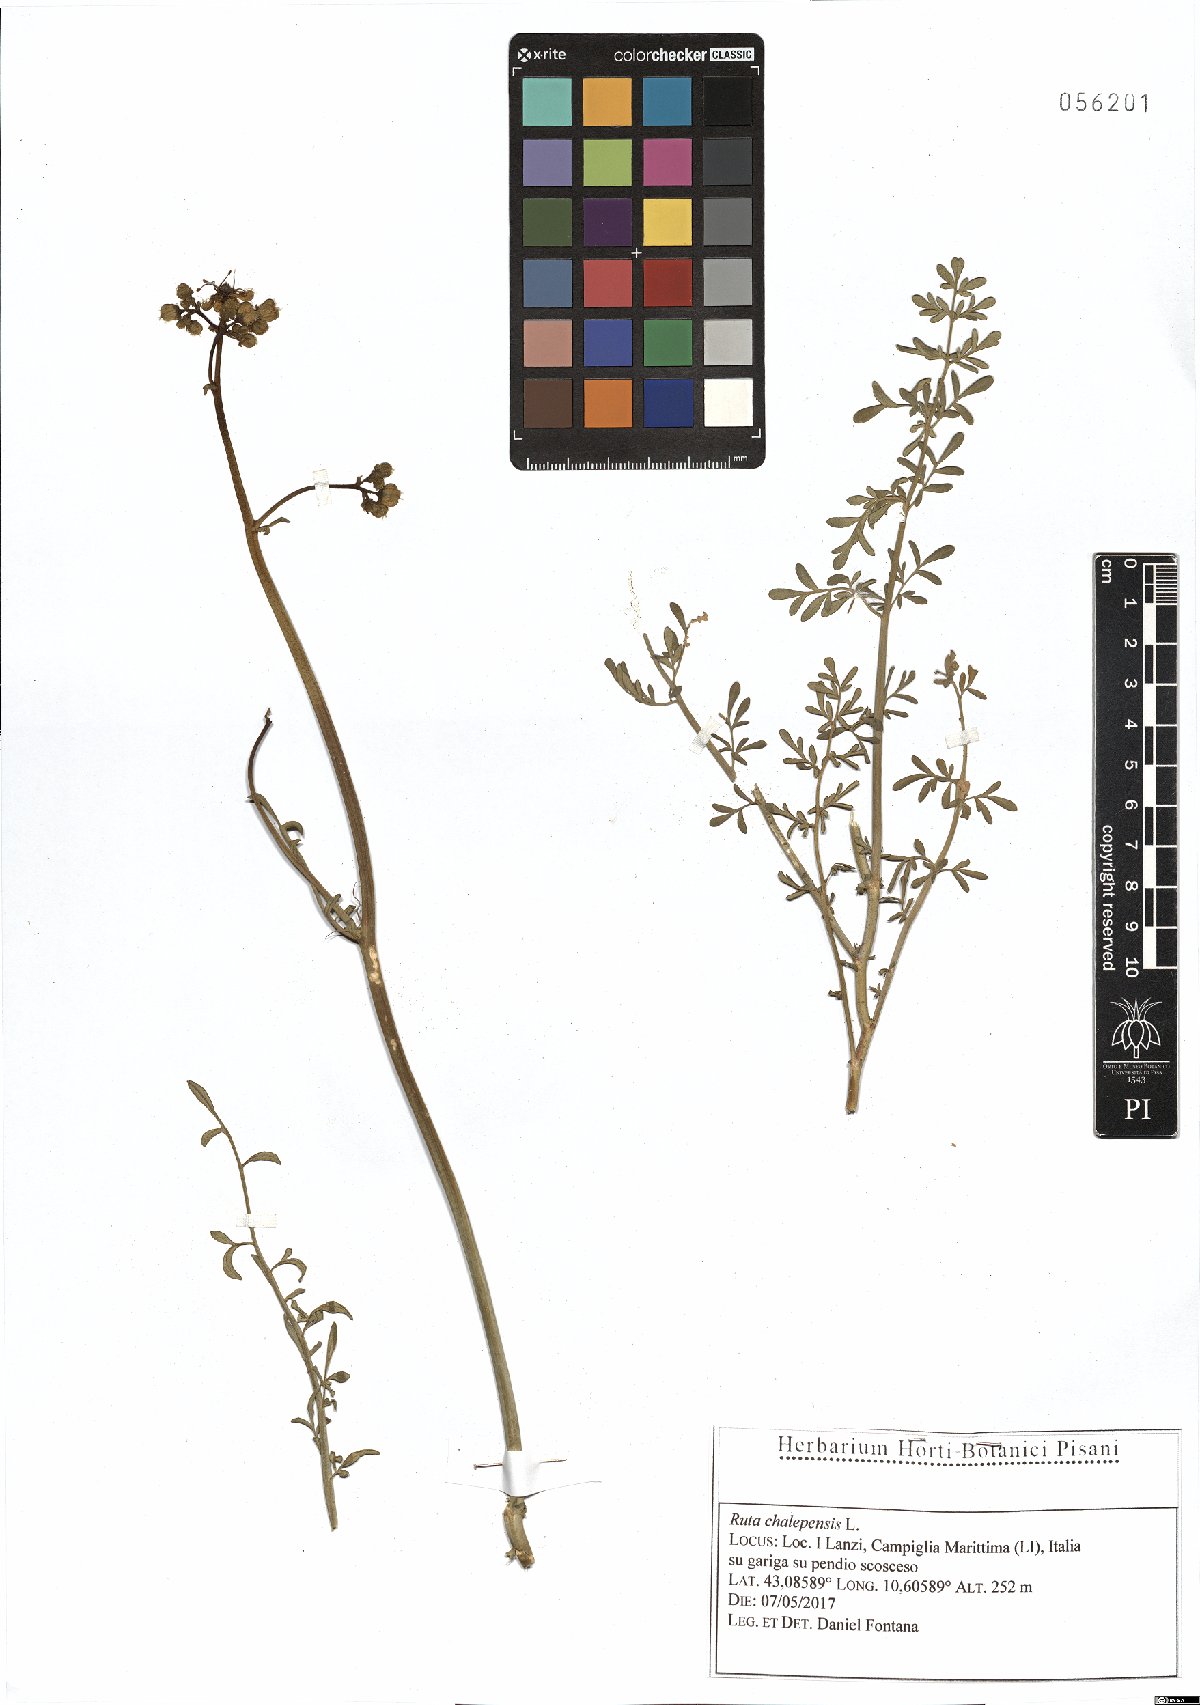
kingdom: Plantae
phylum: Tracheophyta
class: Magnoliopsida
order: Sapindales
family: Rutaceae
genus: Ruta
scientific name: Ruta chalepensis
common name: Fringed rue
